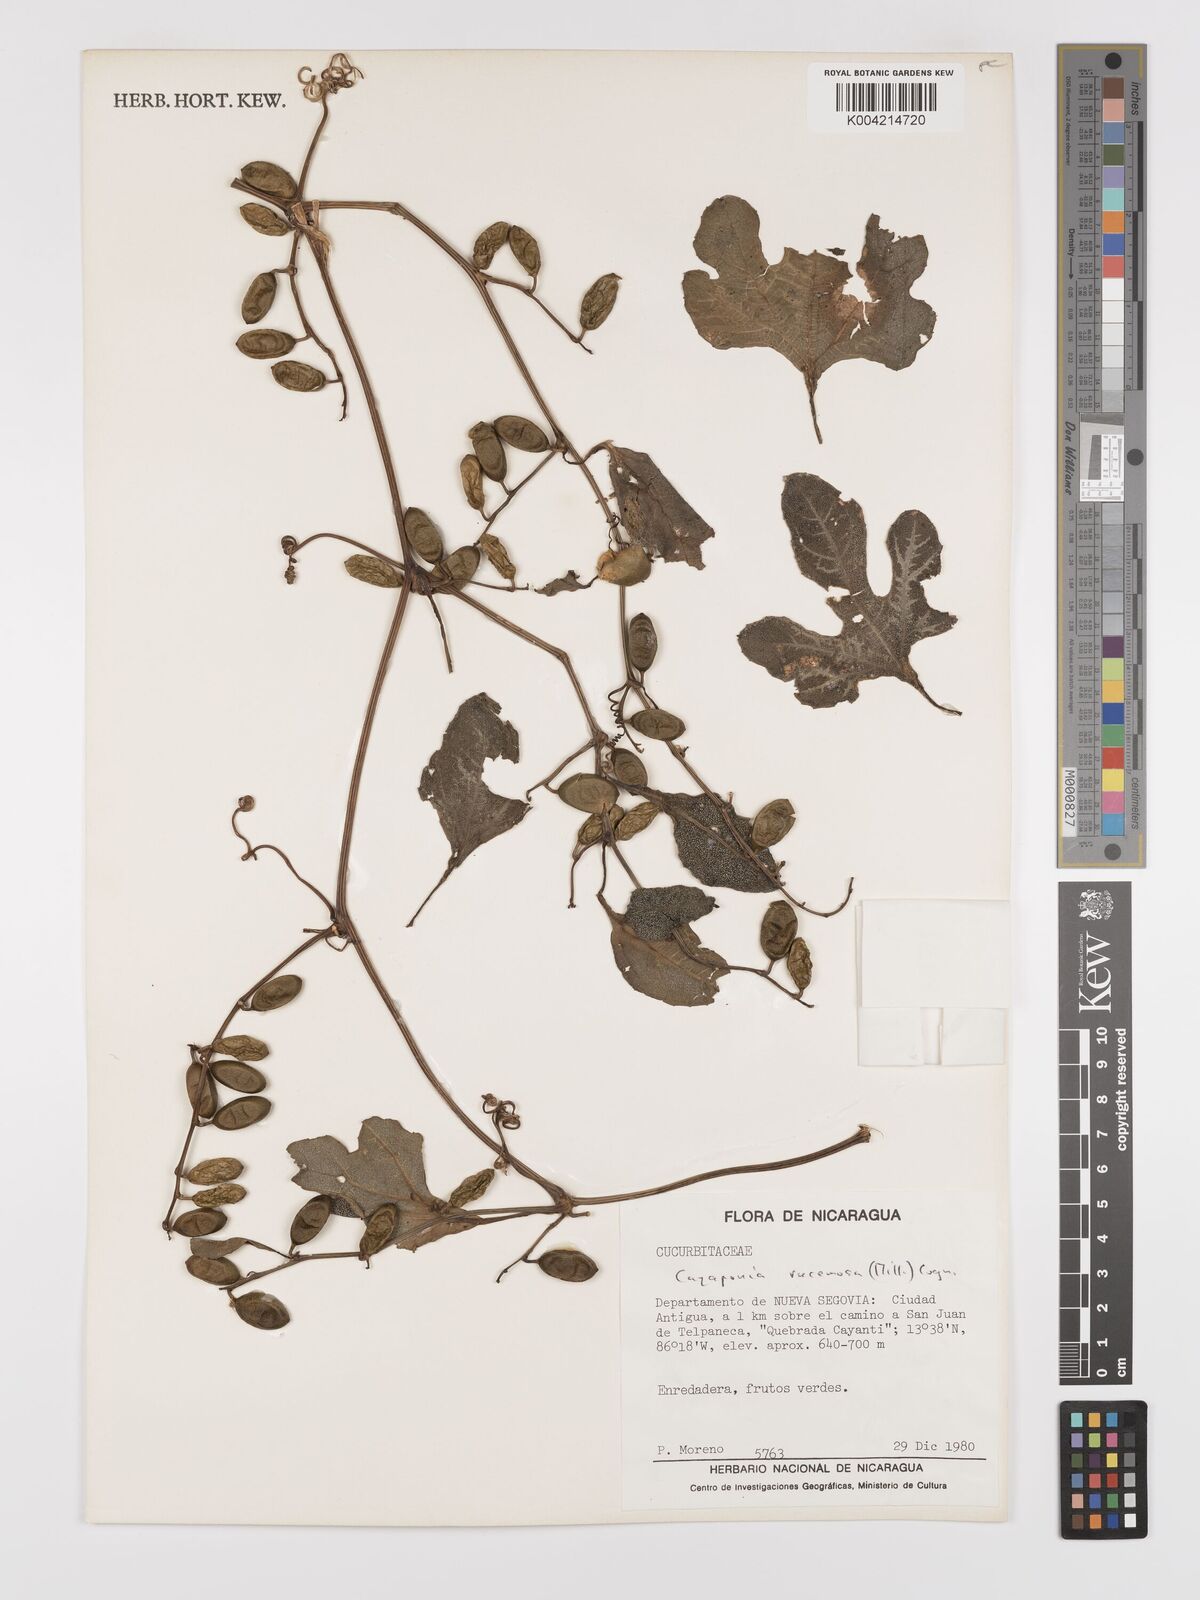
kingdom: Plantae
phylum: Tracheophyta
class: Magnoliopsida
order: Cucurbitales
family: Cucurbitaceae
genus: Cayaponia
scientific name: Cayaponia racemosa
